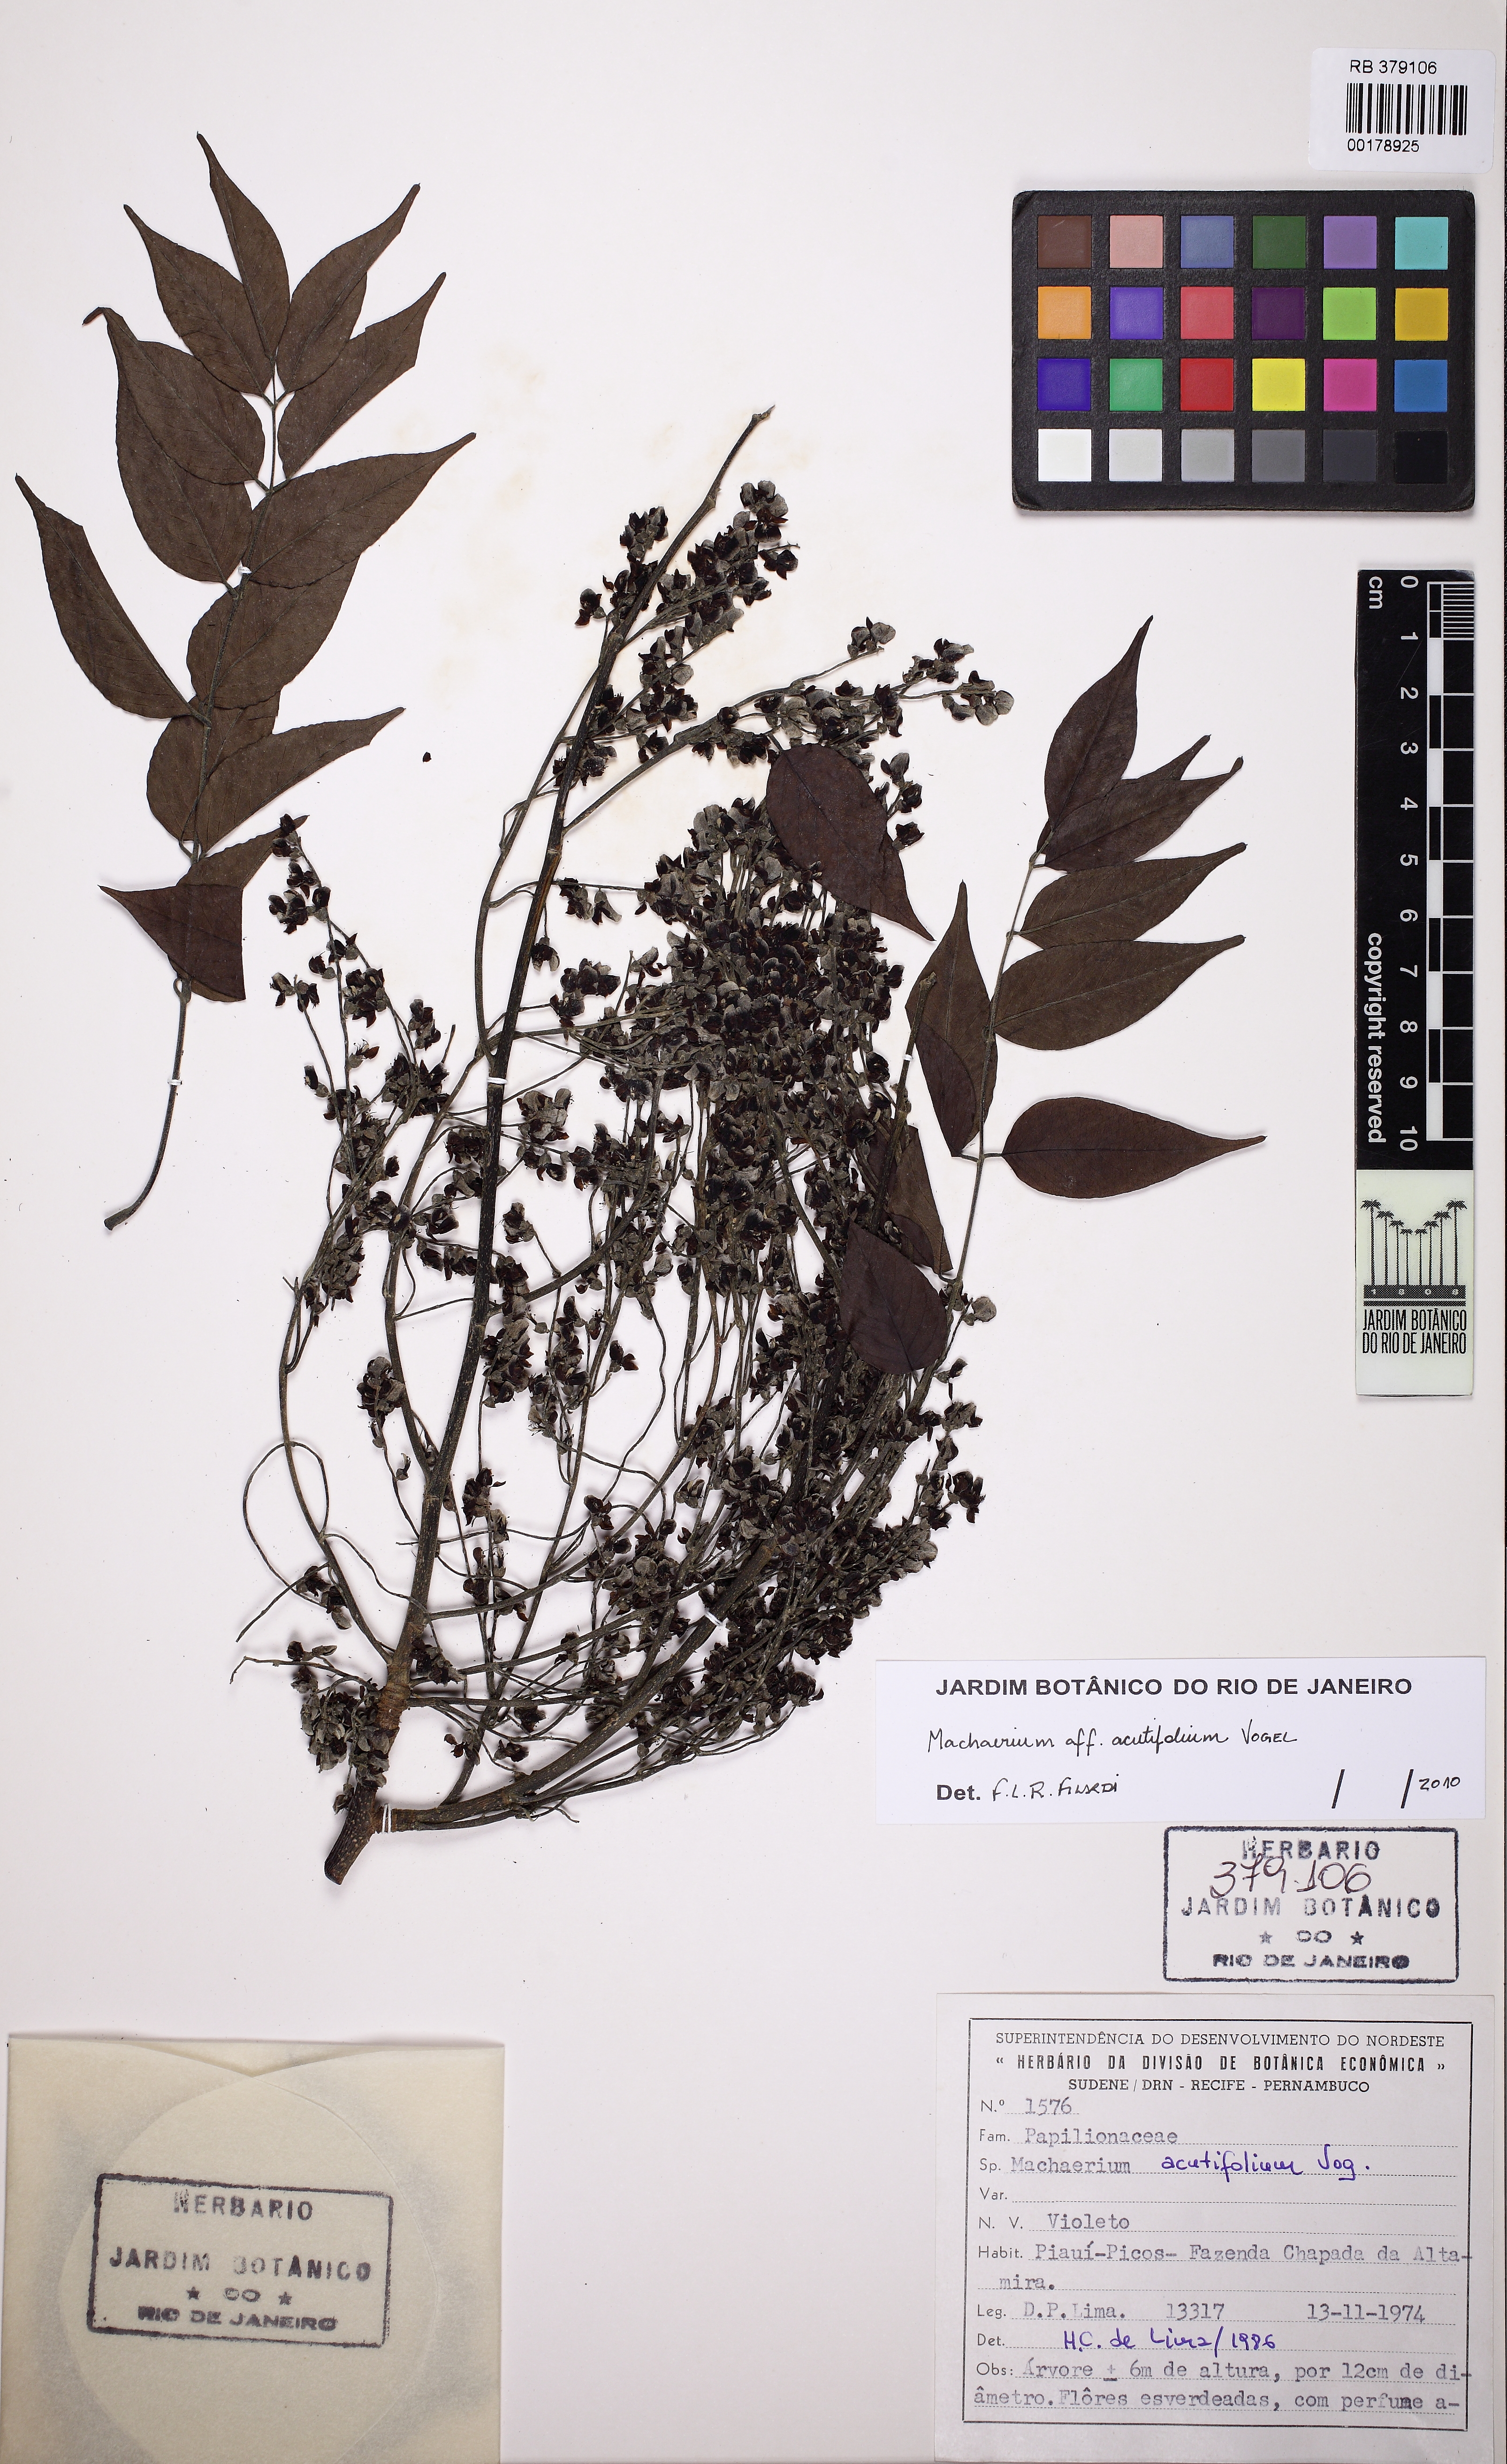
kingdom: Plantae
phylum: Tracheophyta
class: Magnoliopsida
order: Fabales
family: Fabaceae
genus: Machaerium
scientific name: Machaerium acutifolium
